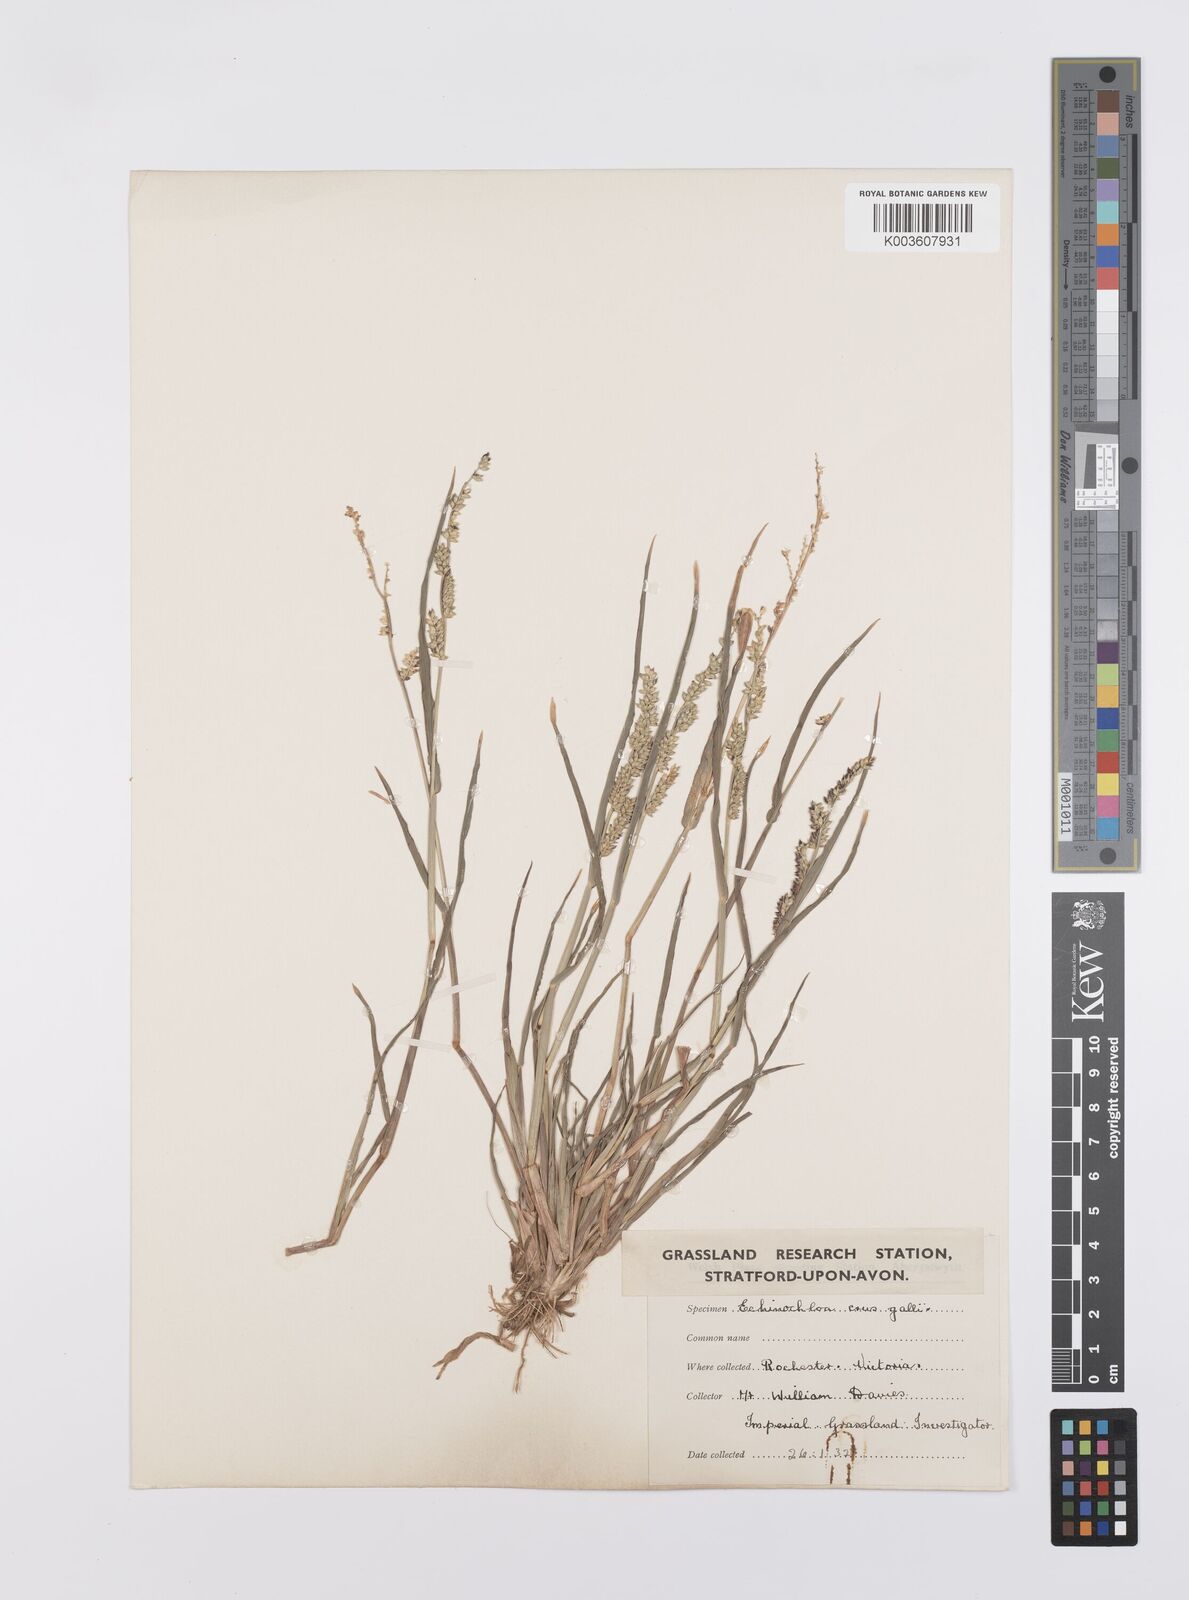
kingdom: Plantae
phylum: Tracheophyta
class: Liliopsida
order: Poales
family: Poaceae
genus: Echinochloa
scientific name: Echinochloa colonum
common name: Jungle rice
